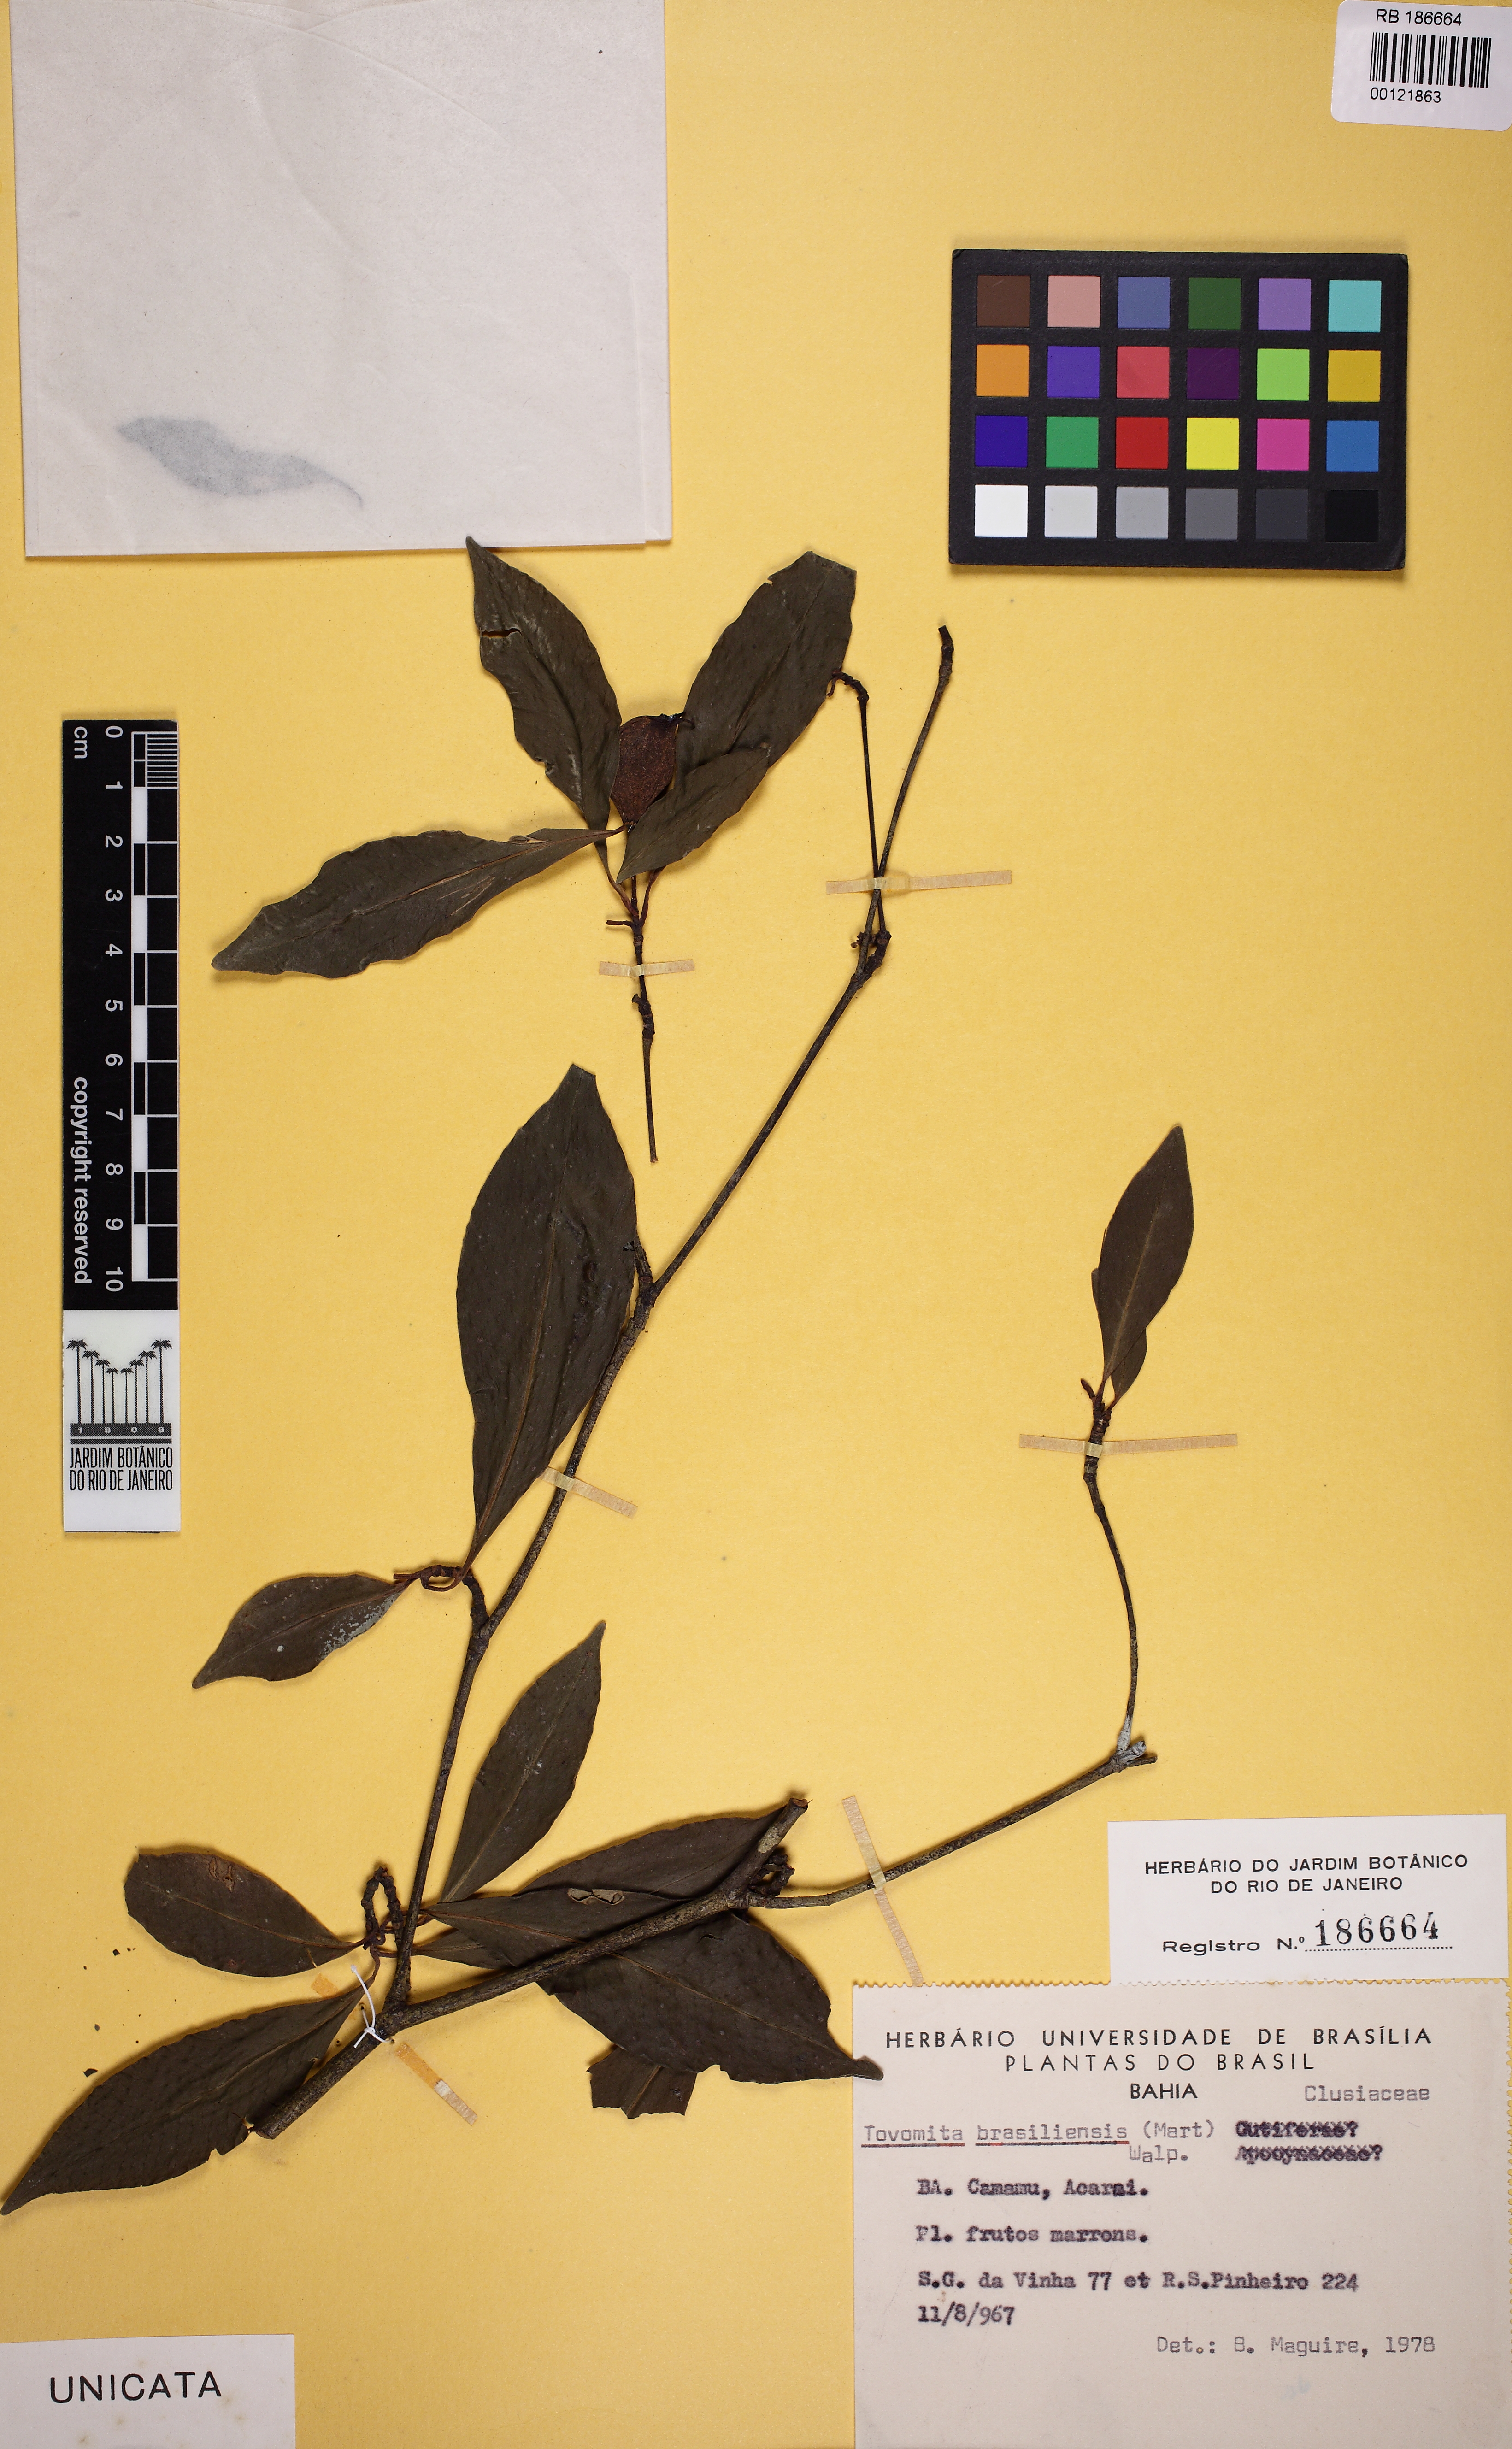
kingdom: Plantae
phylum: Tracheophyta
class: Magnoliopsida
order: Malpighiales
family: Clusiaceae
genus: Tovomita
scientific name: Tovomita fructipendula
